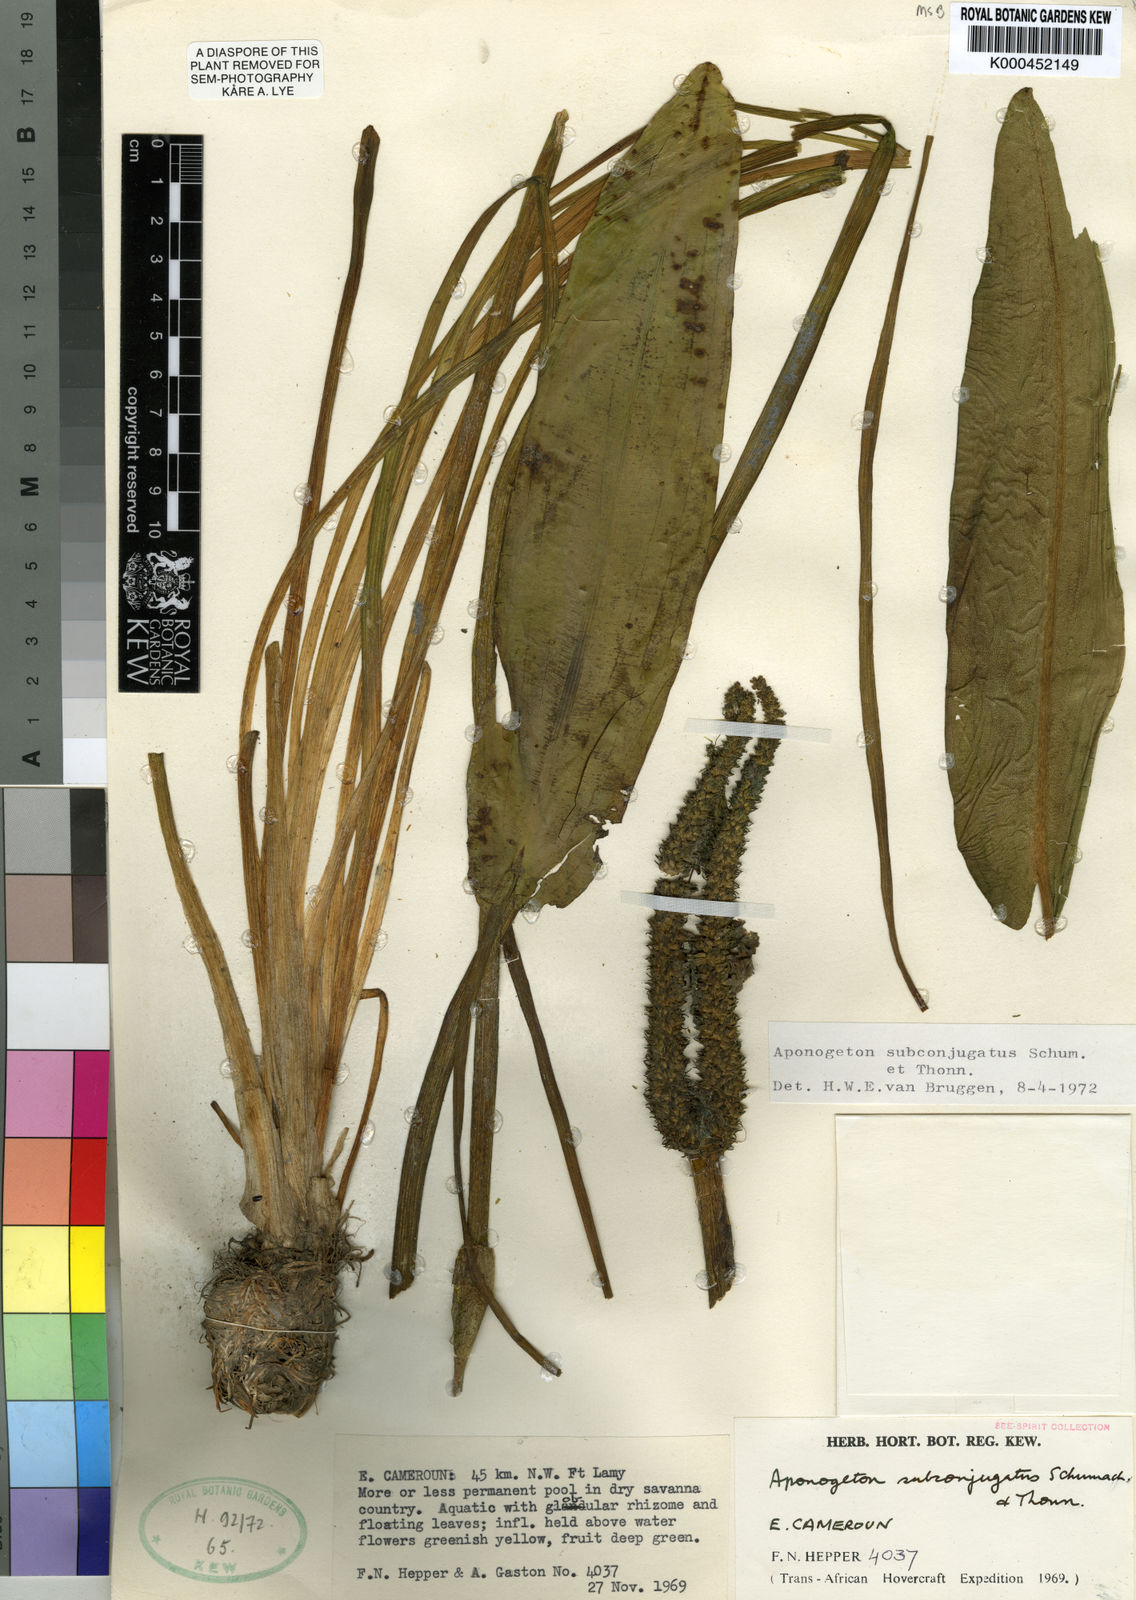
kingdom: Plantae
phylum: Tracheophyta
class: Liliopsida
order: Alismatales
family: Aponogetonaceae
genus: Aponogeton
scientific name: Aponogeton subconjugatus
